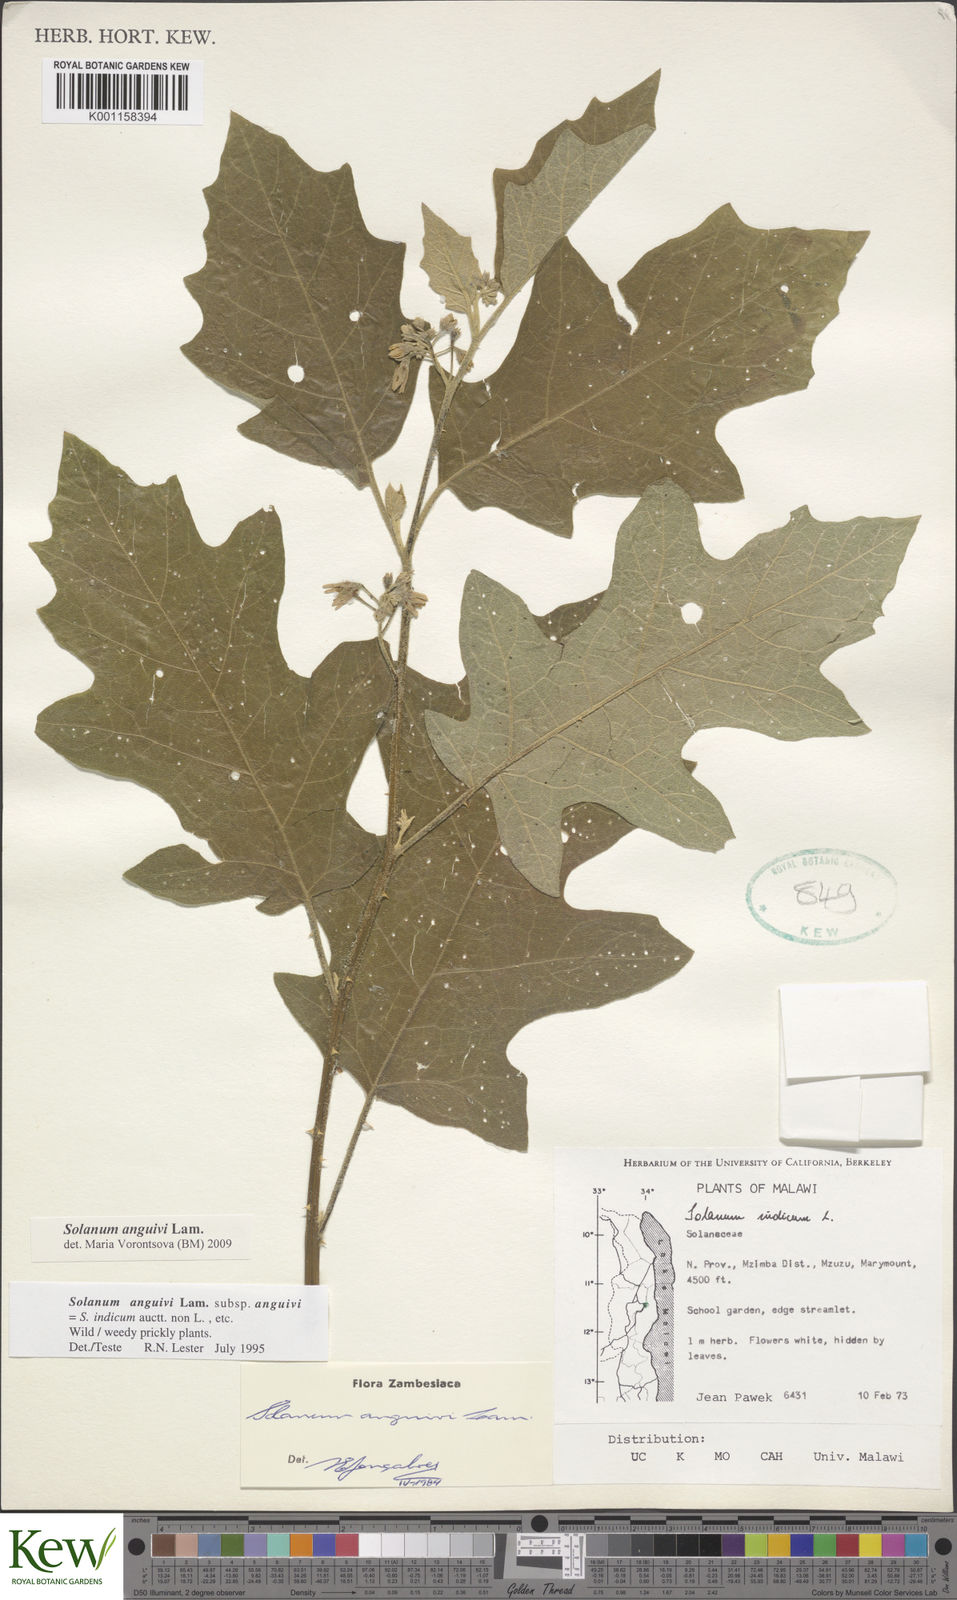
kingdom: Plantae
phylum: Tracheophyta
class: Magnoliopsida
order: Solanales
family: Solanaceae
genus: Solanum
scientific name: Solanum anguivi
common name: Forest bitterberry
